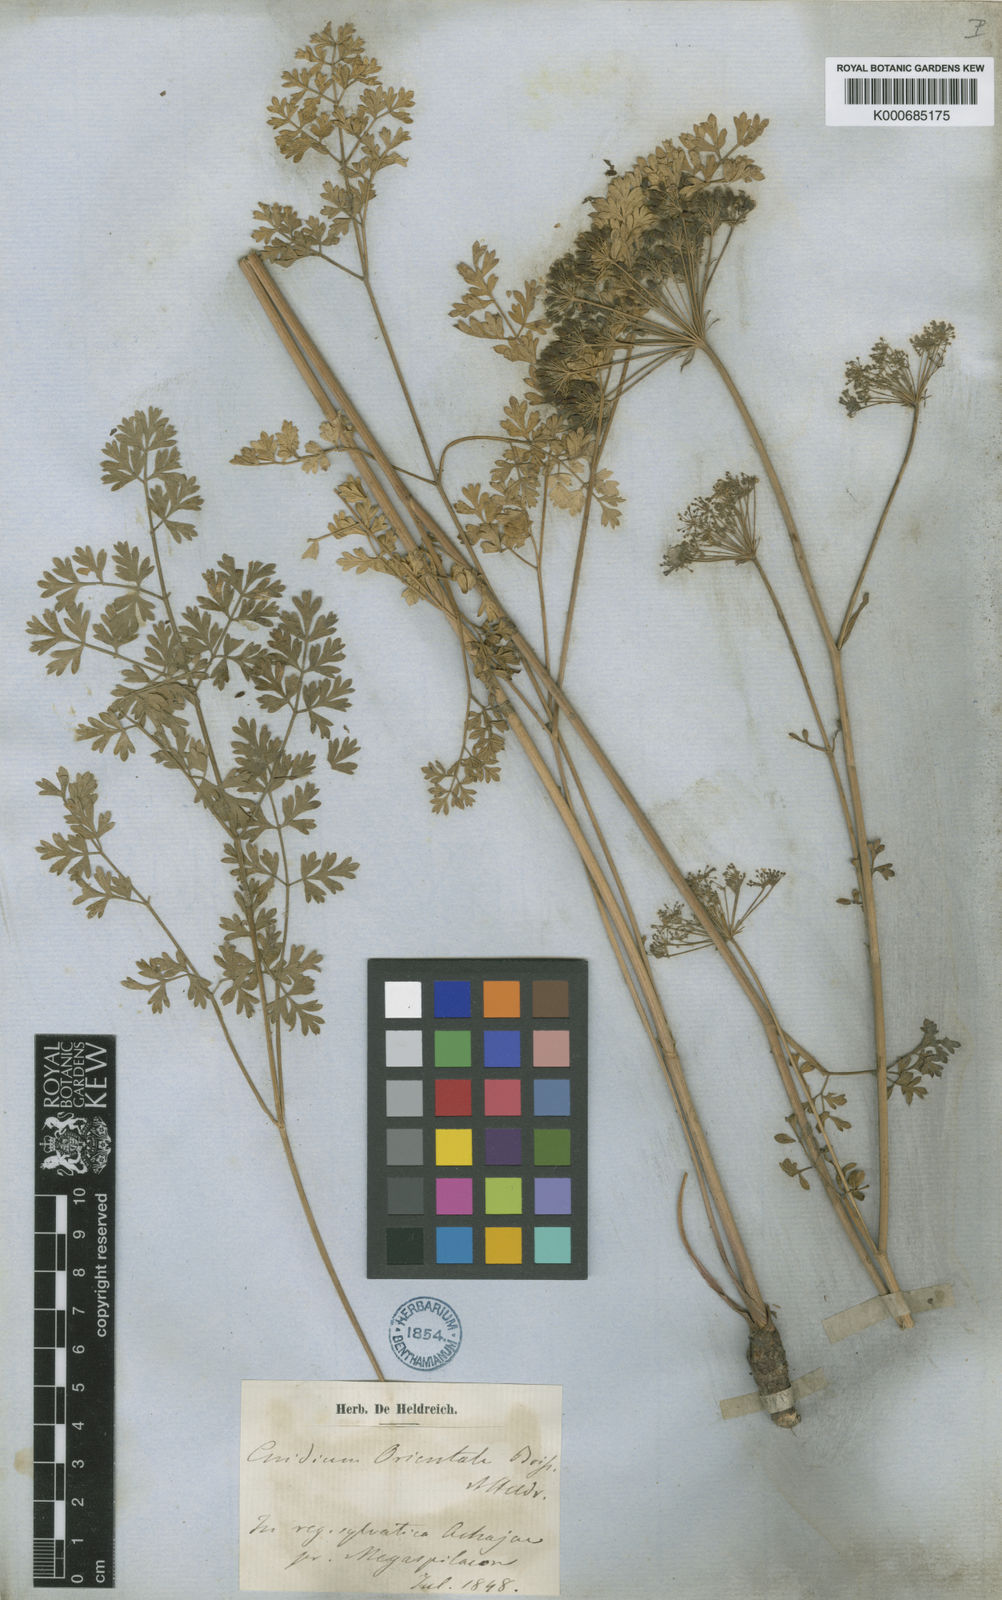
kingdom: Plantae
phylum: Tracheophyta
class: Magnoliopsida
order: Apiales
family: Apiaceae
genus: Katapsuxis
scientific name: Katapsuxis silaifolia
